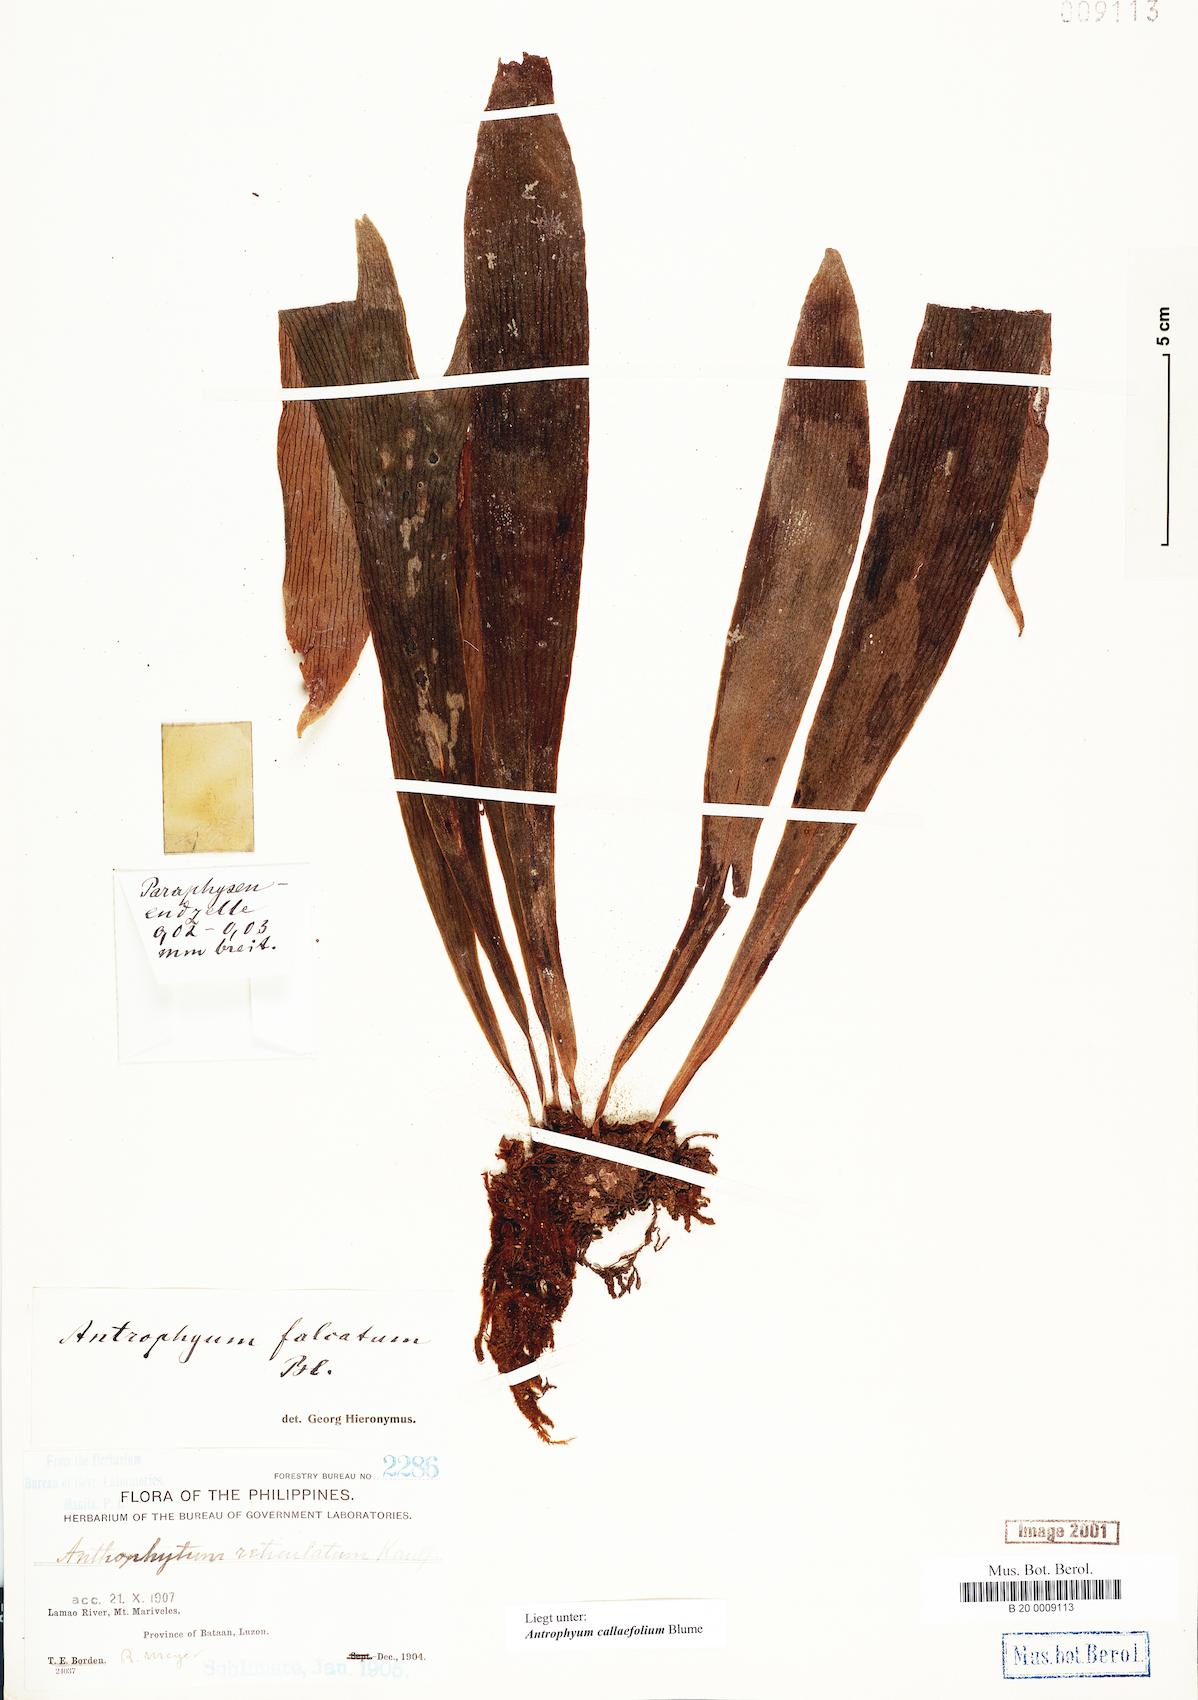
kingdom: Plantae
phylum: Tracheophyta
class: Polypodiopsida
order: Polypodiales
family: Pteridaceae
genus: Antrophyum
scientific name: Antrophyum callifolium
